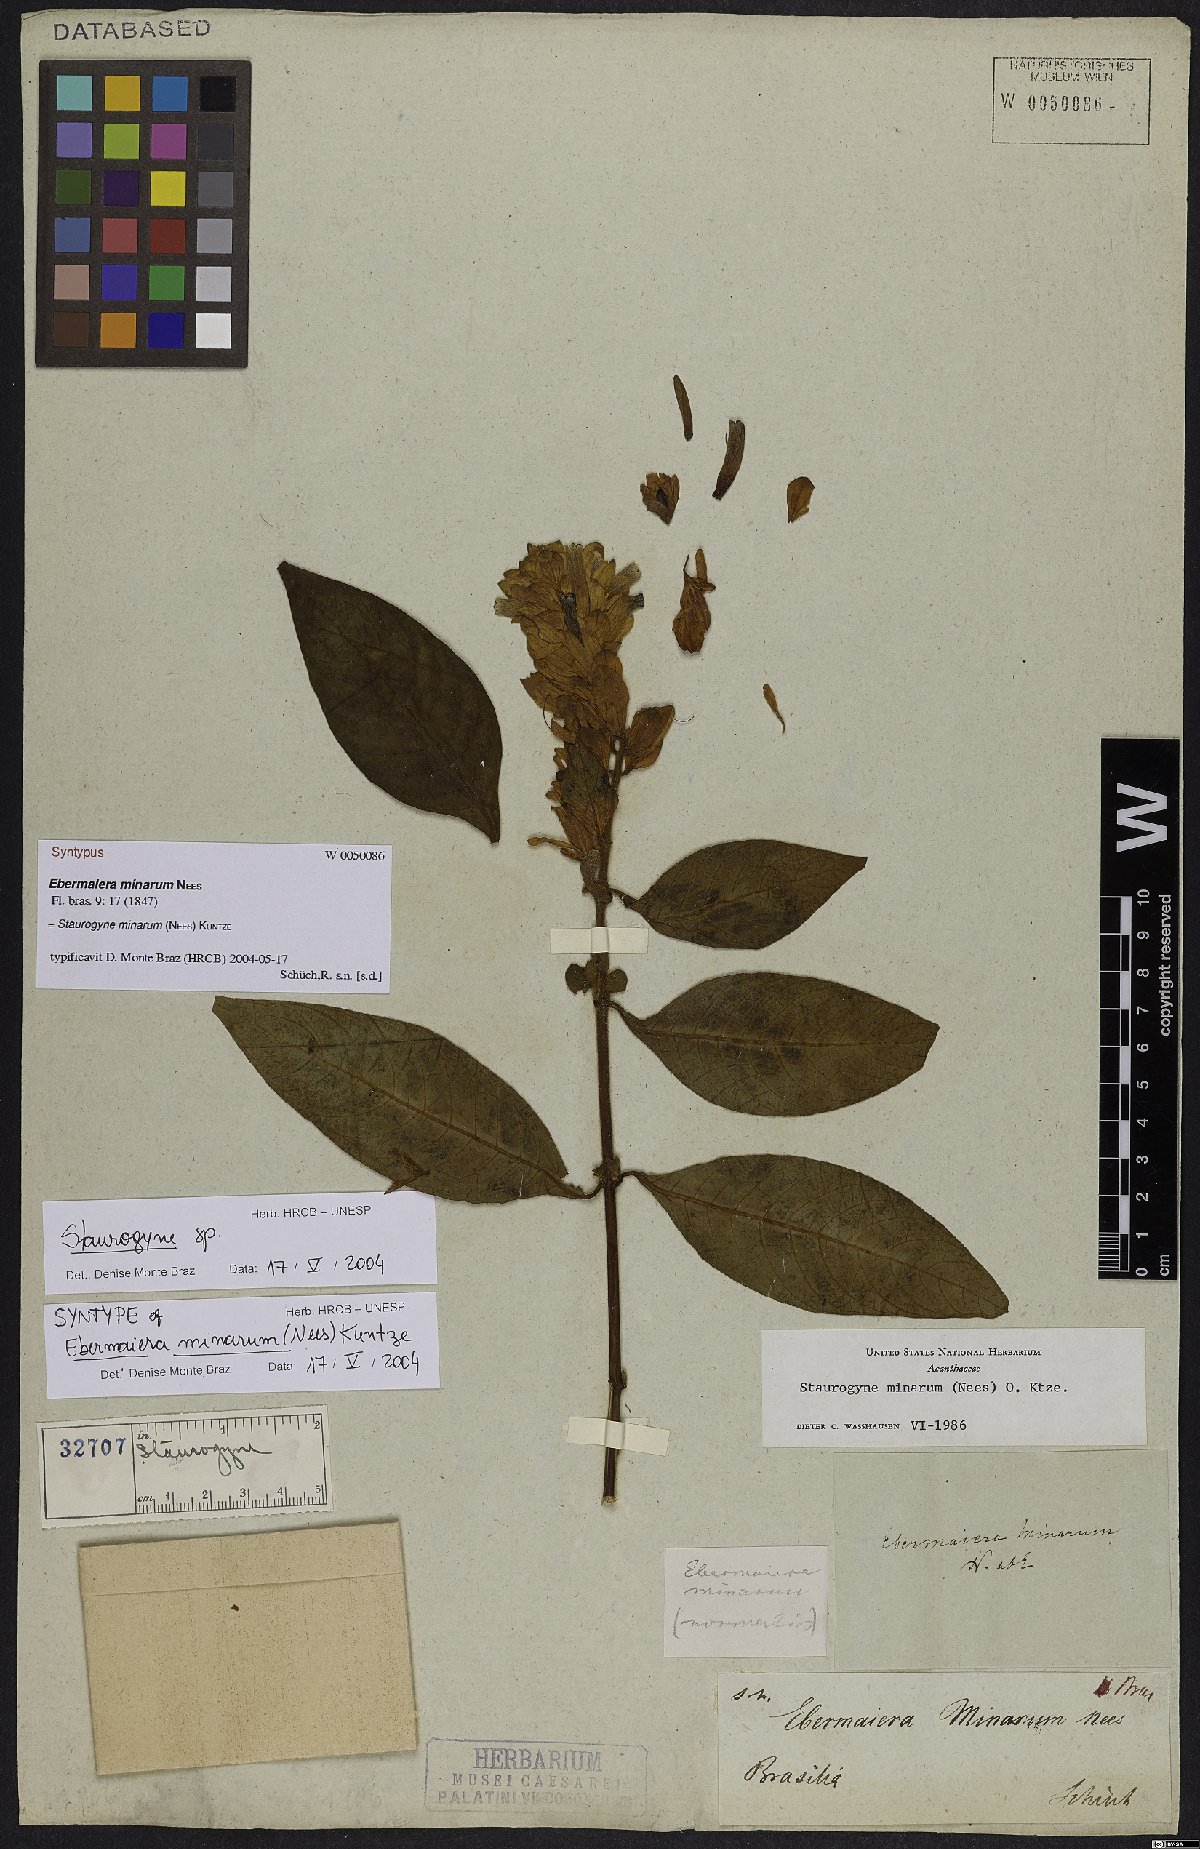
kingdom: Plantae
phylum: Tracheophyta
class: Magnoliopsida
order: Lamiales
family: Acanthaceae
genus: Staurogyne
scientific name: Staurogyne minarum
